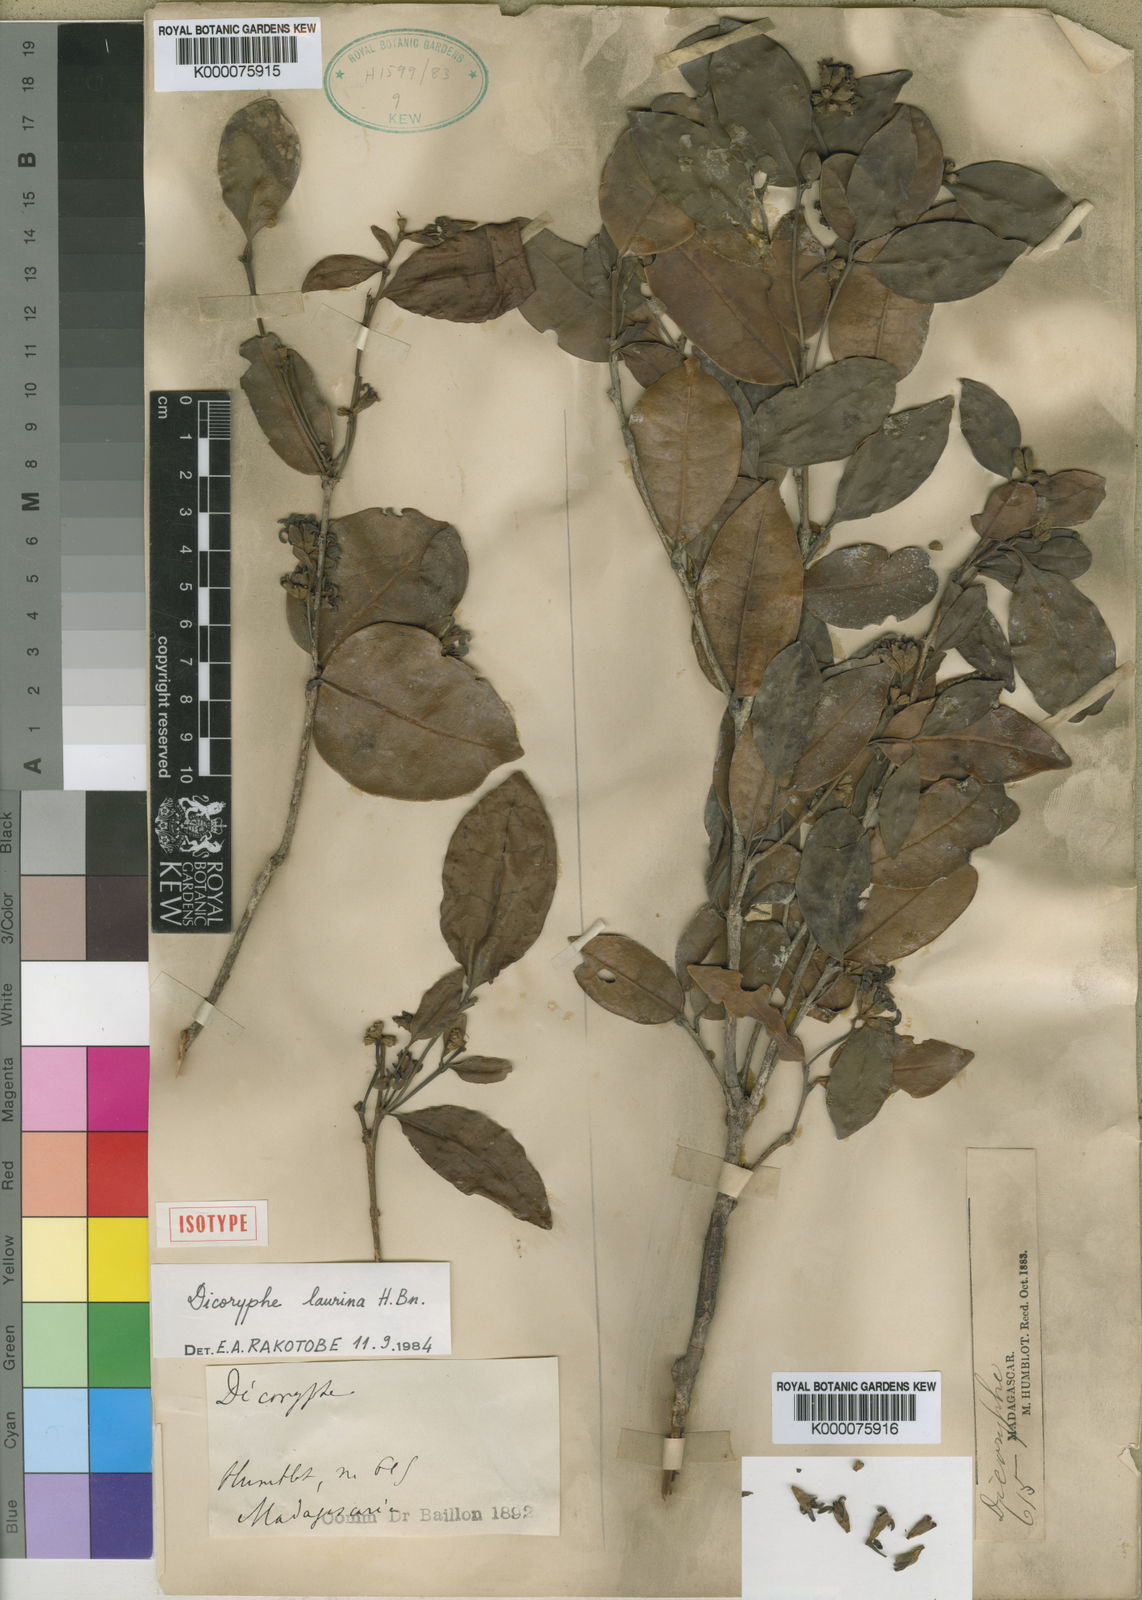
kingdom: Plantae
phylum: Tracheophyta
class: Magnoliopsida
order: Saxifragales
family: Hamamelidaceae
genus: Dicoryphe
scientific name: Dicoryphe laurina
